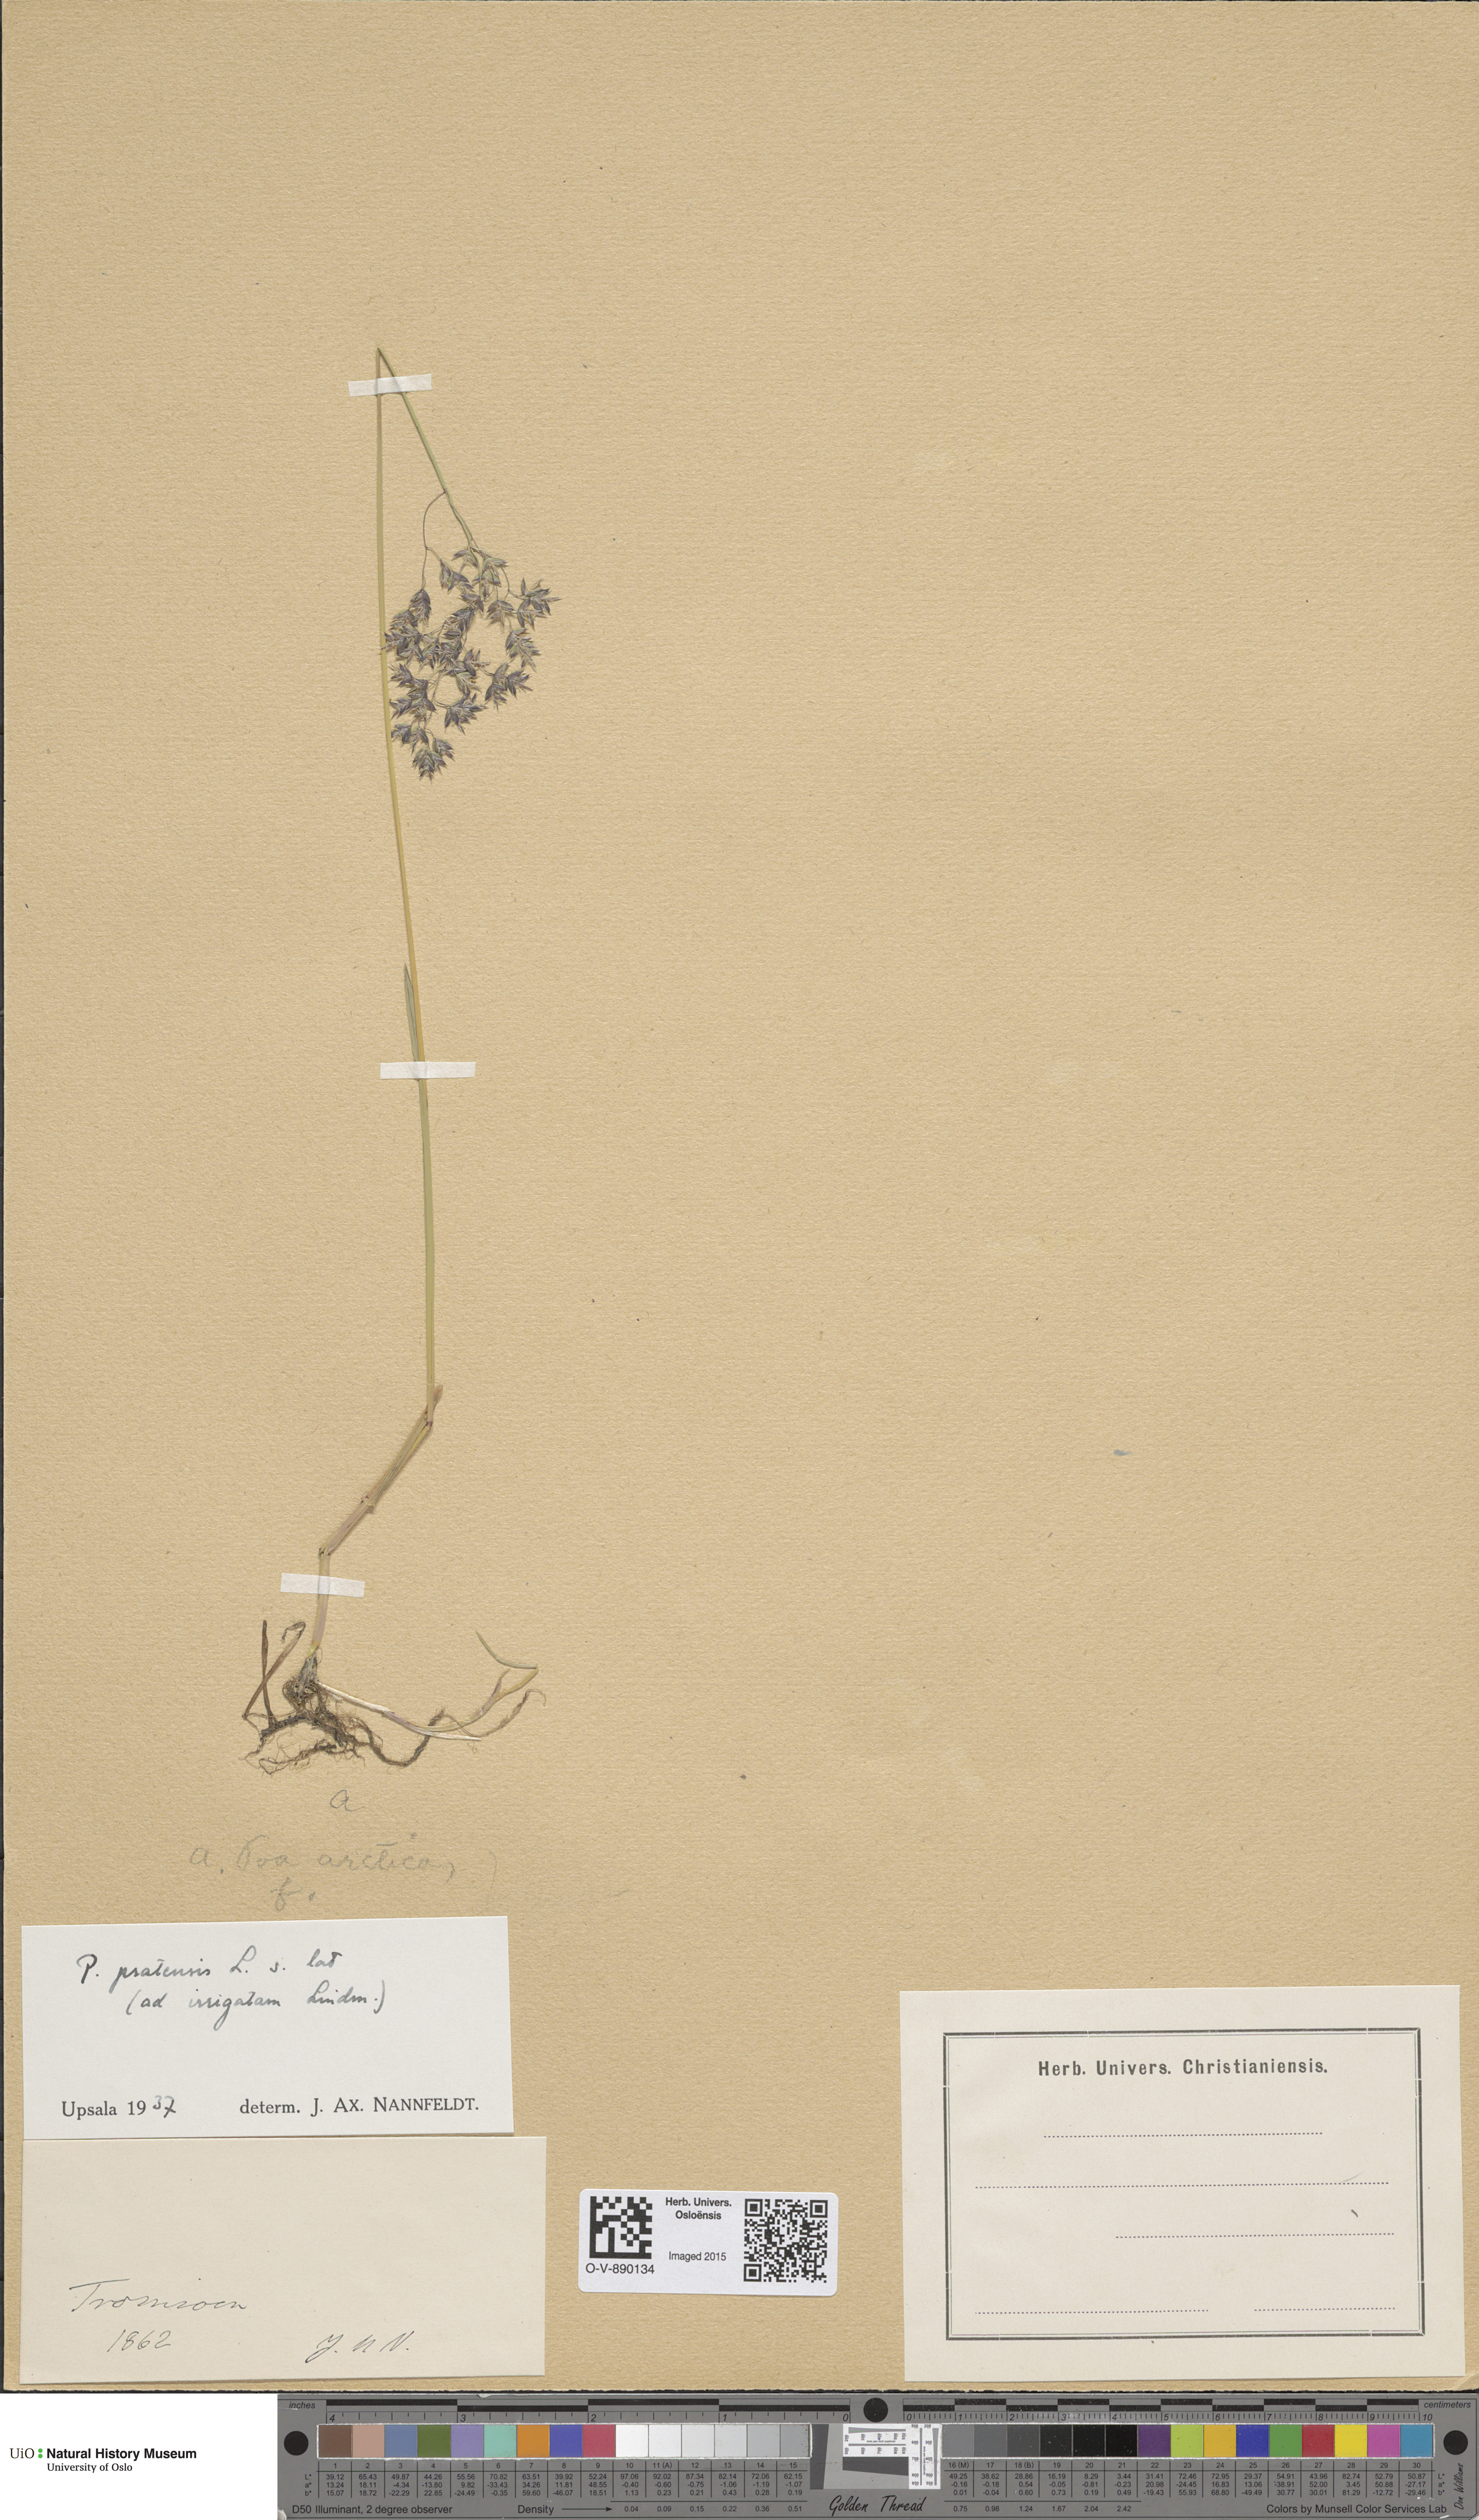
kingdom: Plantae
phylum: Tracheophyta
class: Liliopsida
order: Poales
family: Poaceae
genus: Poa
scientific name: Poa humilis
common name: Spreading meadow-grass
